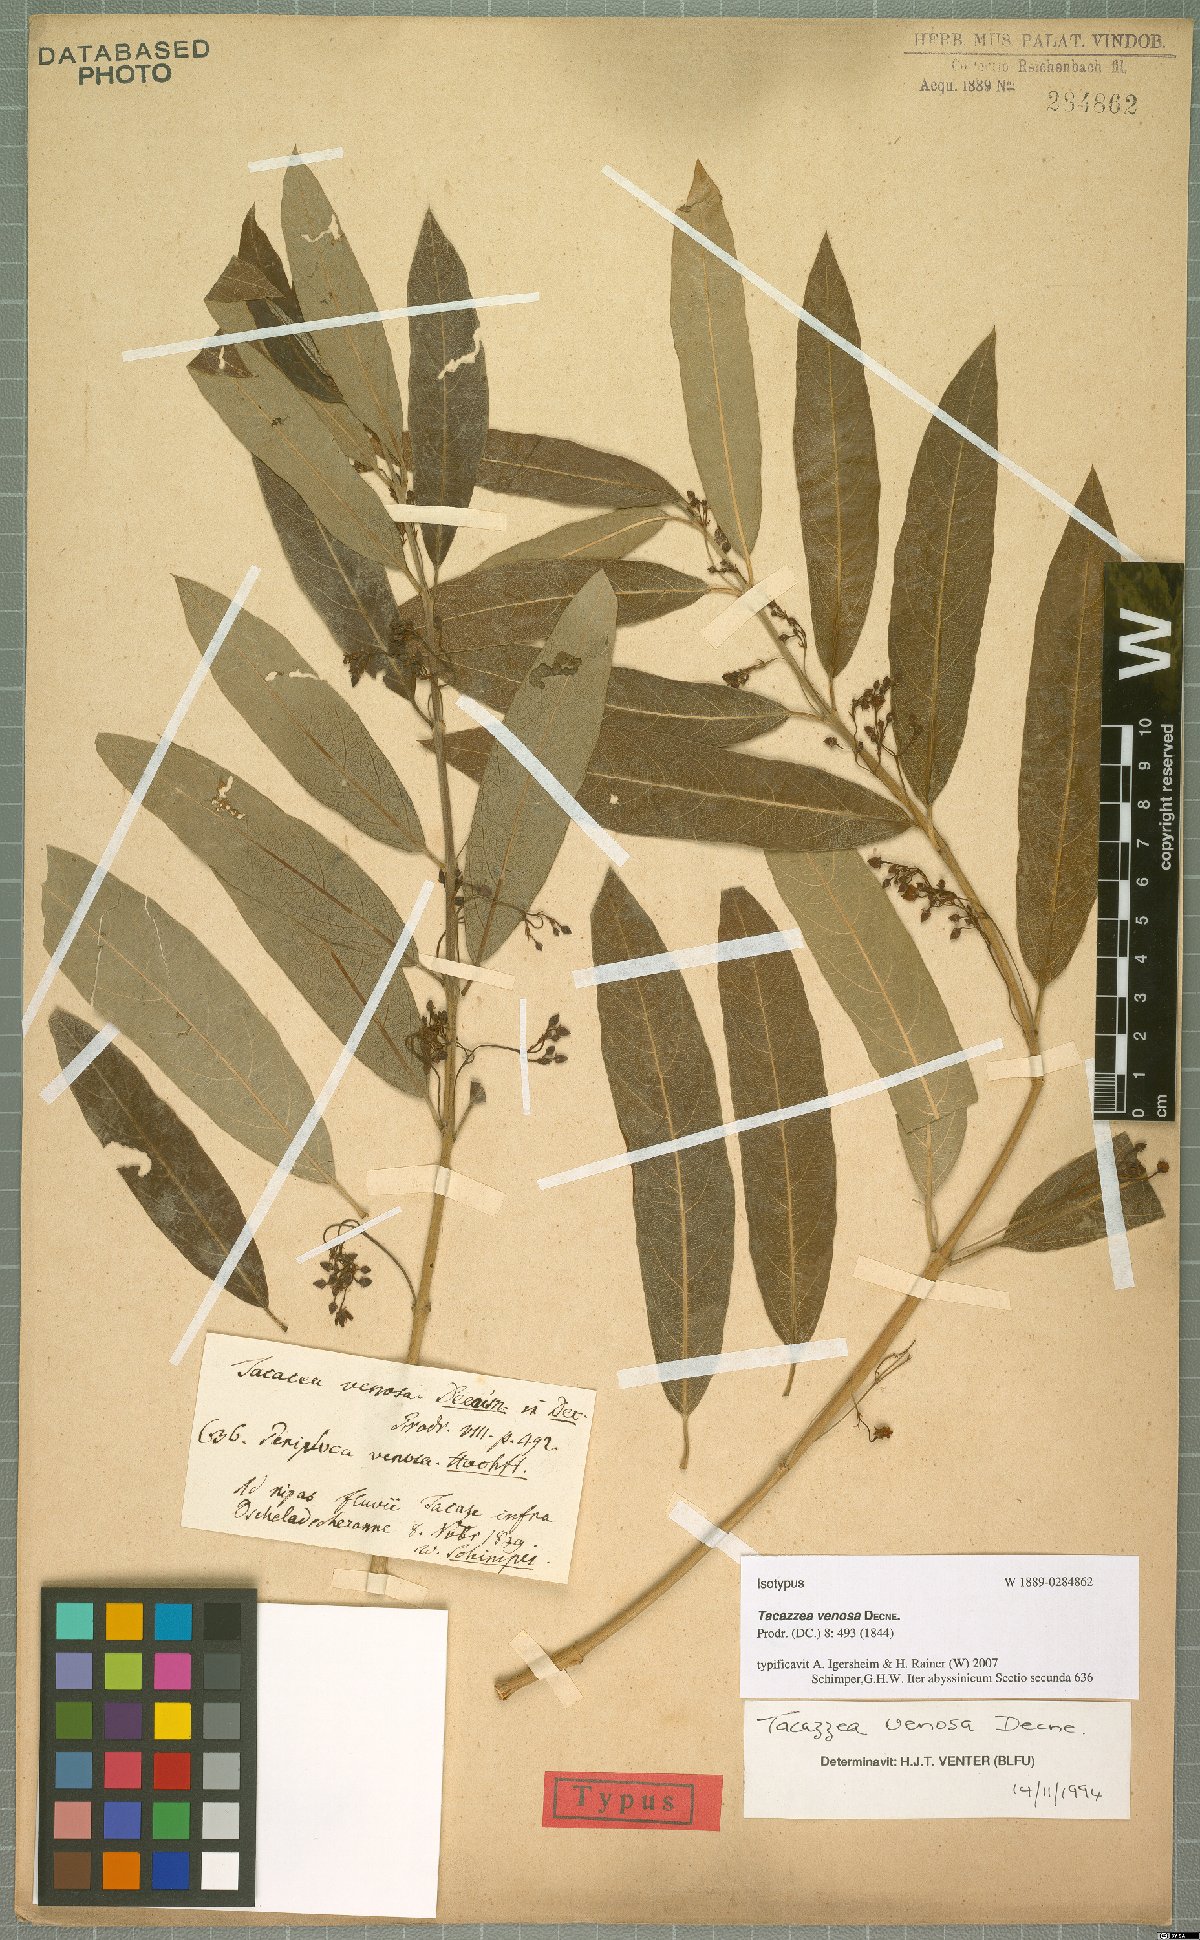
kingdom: Plantae
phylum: Tracheophyta
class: Magnoliopsida
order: Gentianales
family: Apocynaceae
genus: Tacazzea
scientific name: Tacazzea venosa
